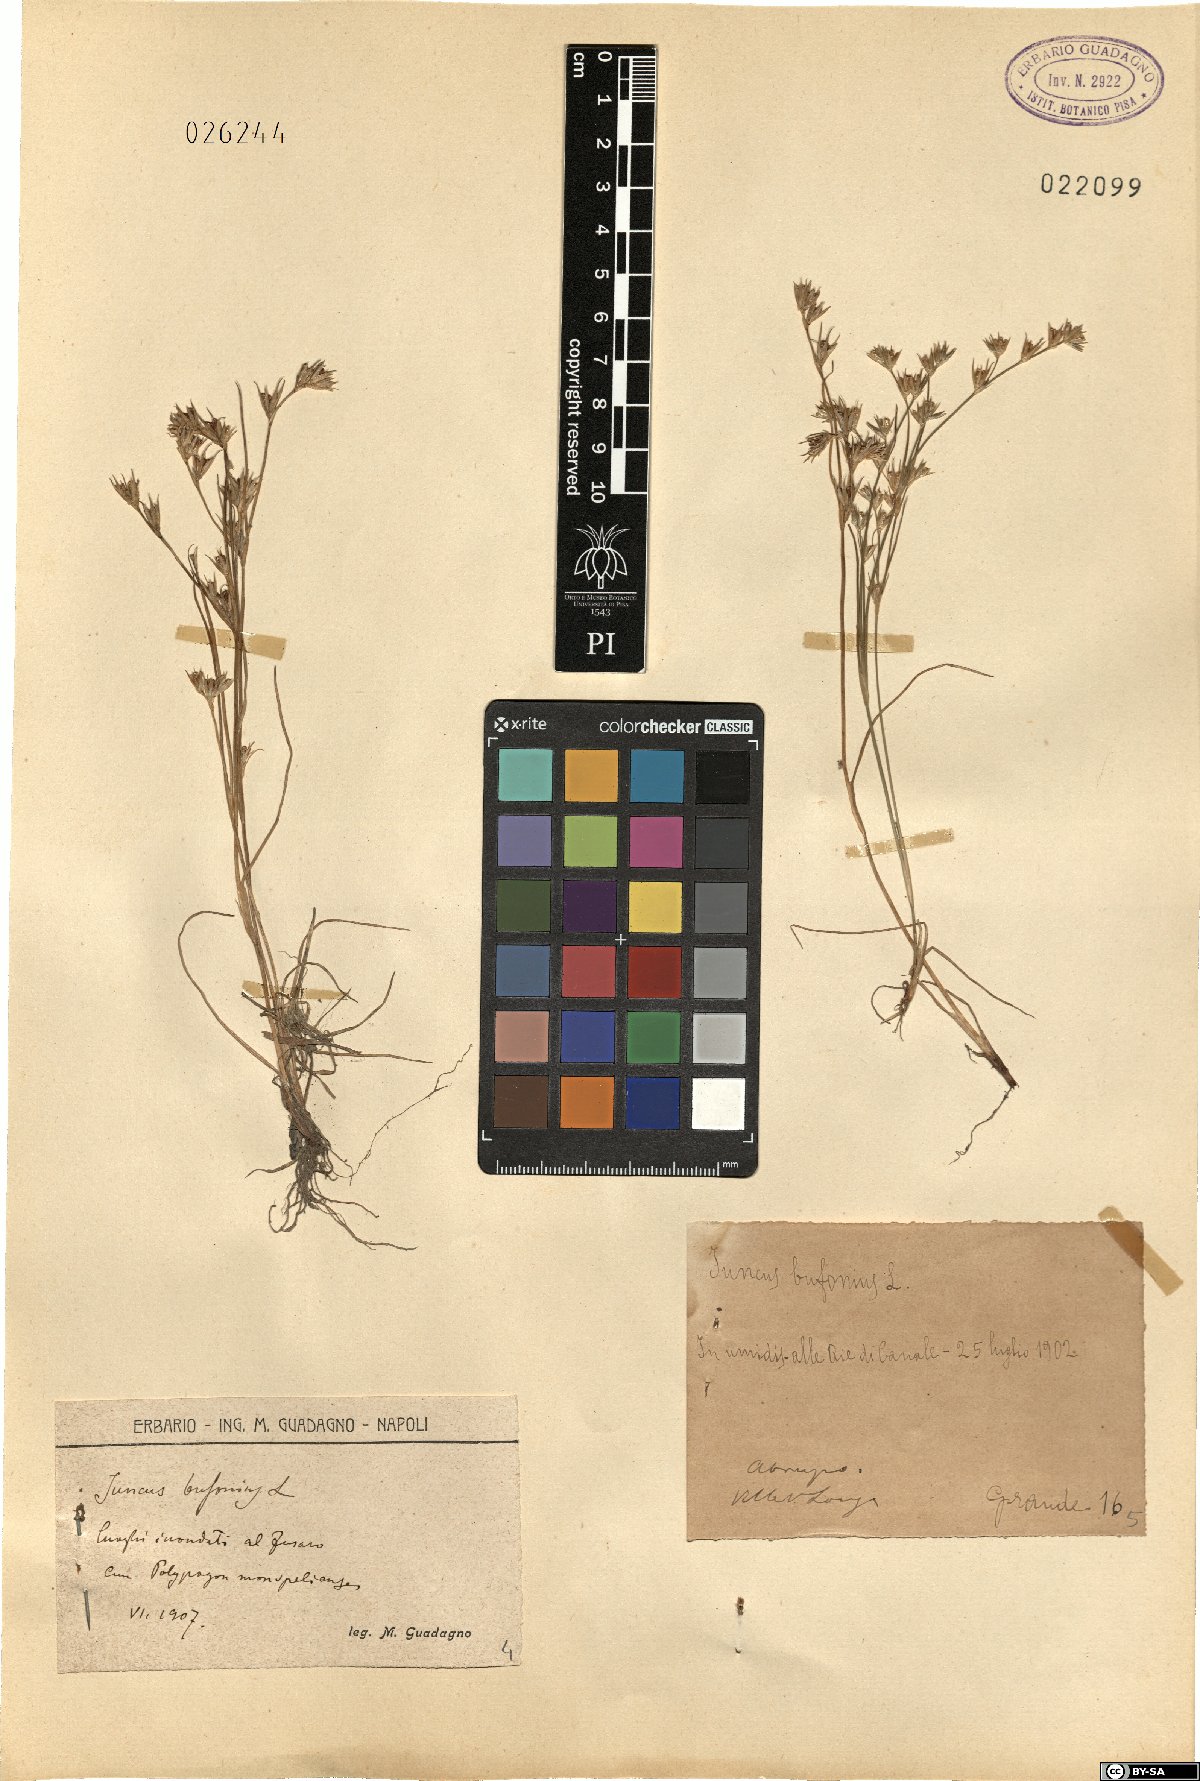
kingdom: Plantae
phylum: Tracheophyta
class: Liliopsida
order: Poales
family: Juncaceae
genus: Juncus
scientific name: Juncus bufonius
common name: Toad rush
